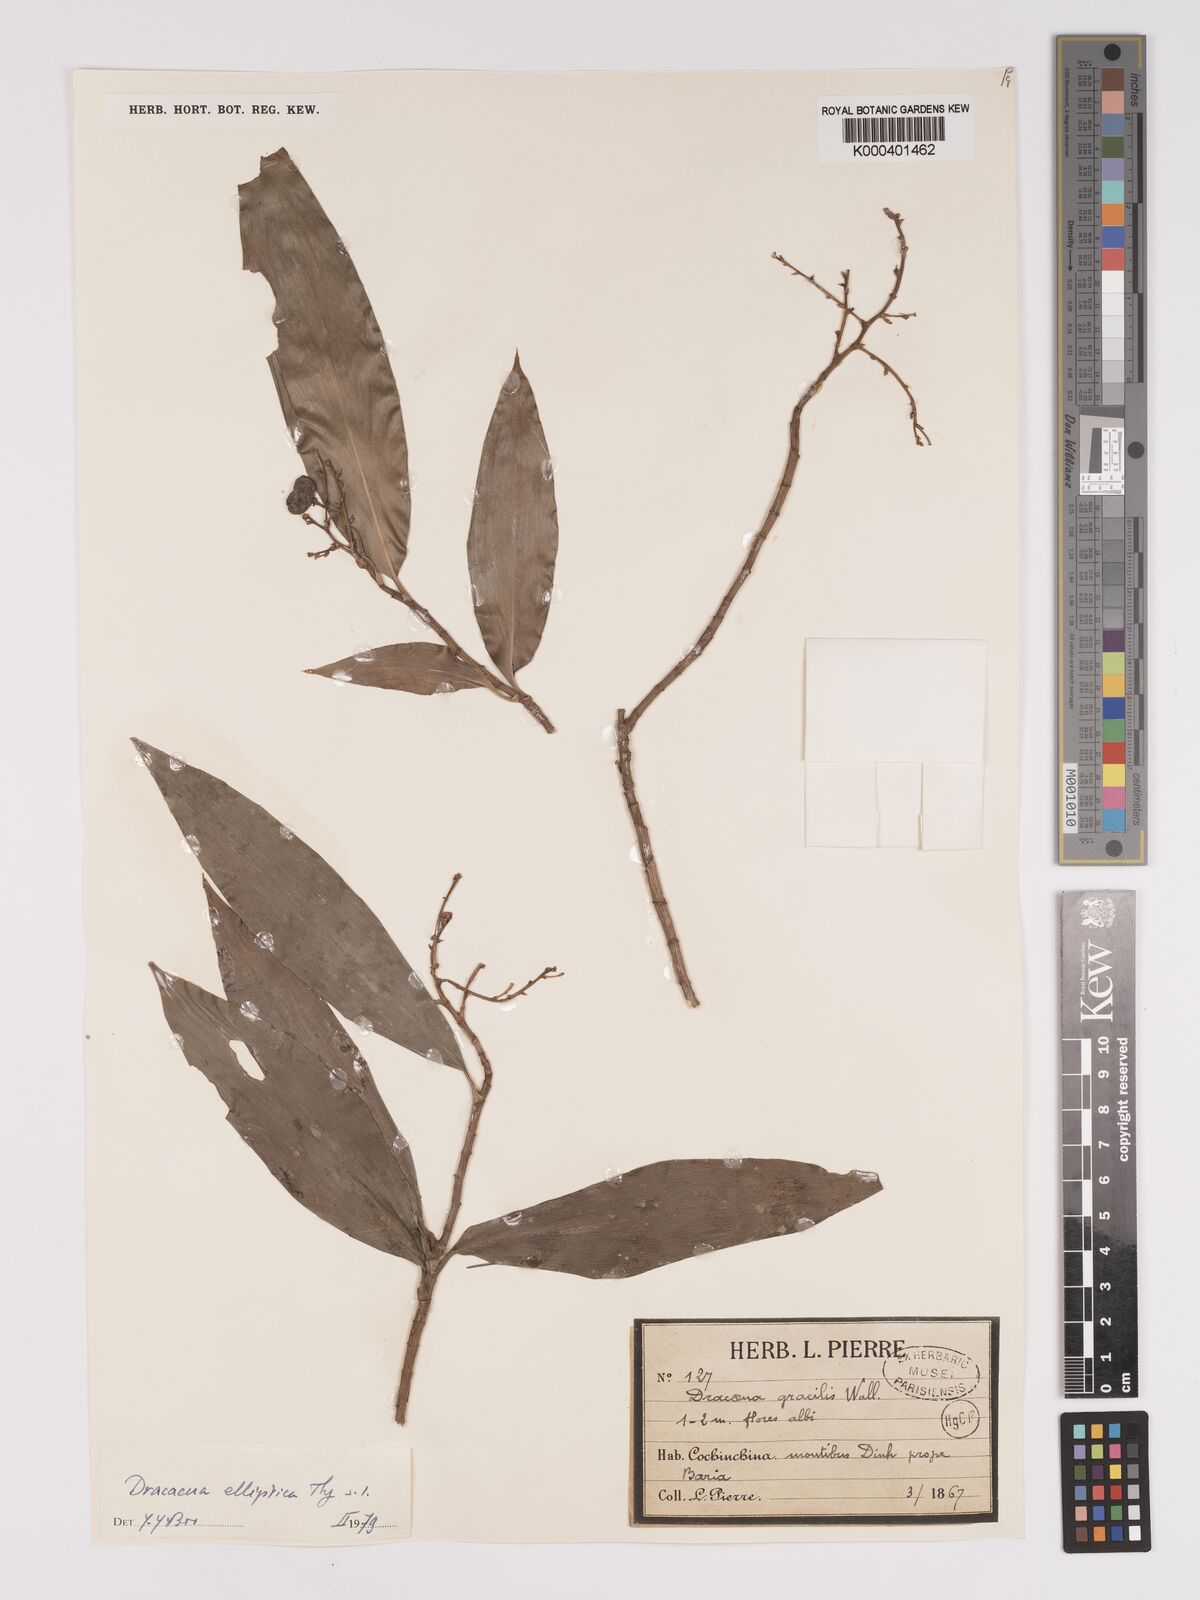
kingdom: Plantae
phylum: Tracheophyta
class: Liliopsida
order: Asparagales
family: Asparagaceae
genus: Dracaena
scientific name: Dracaena elliptica
